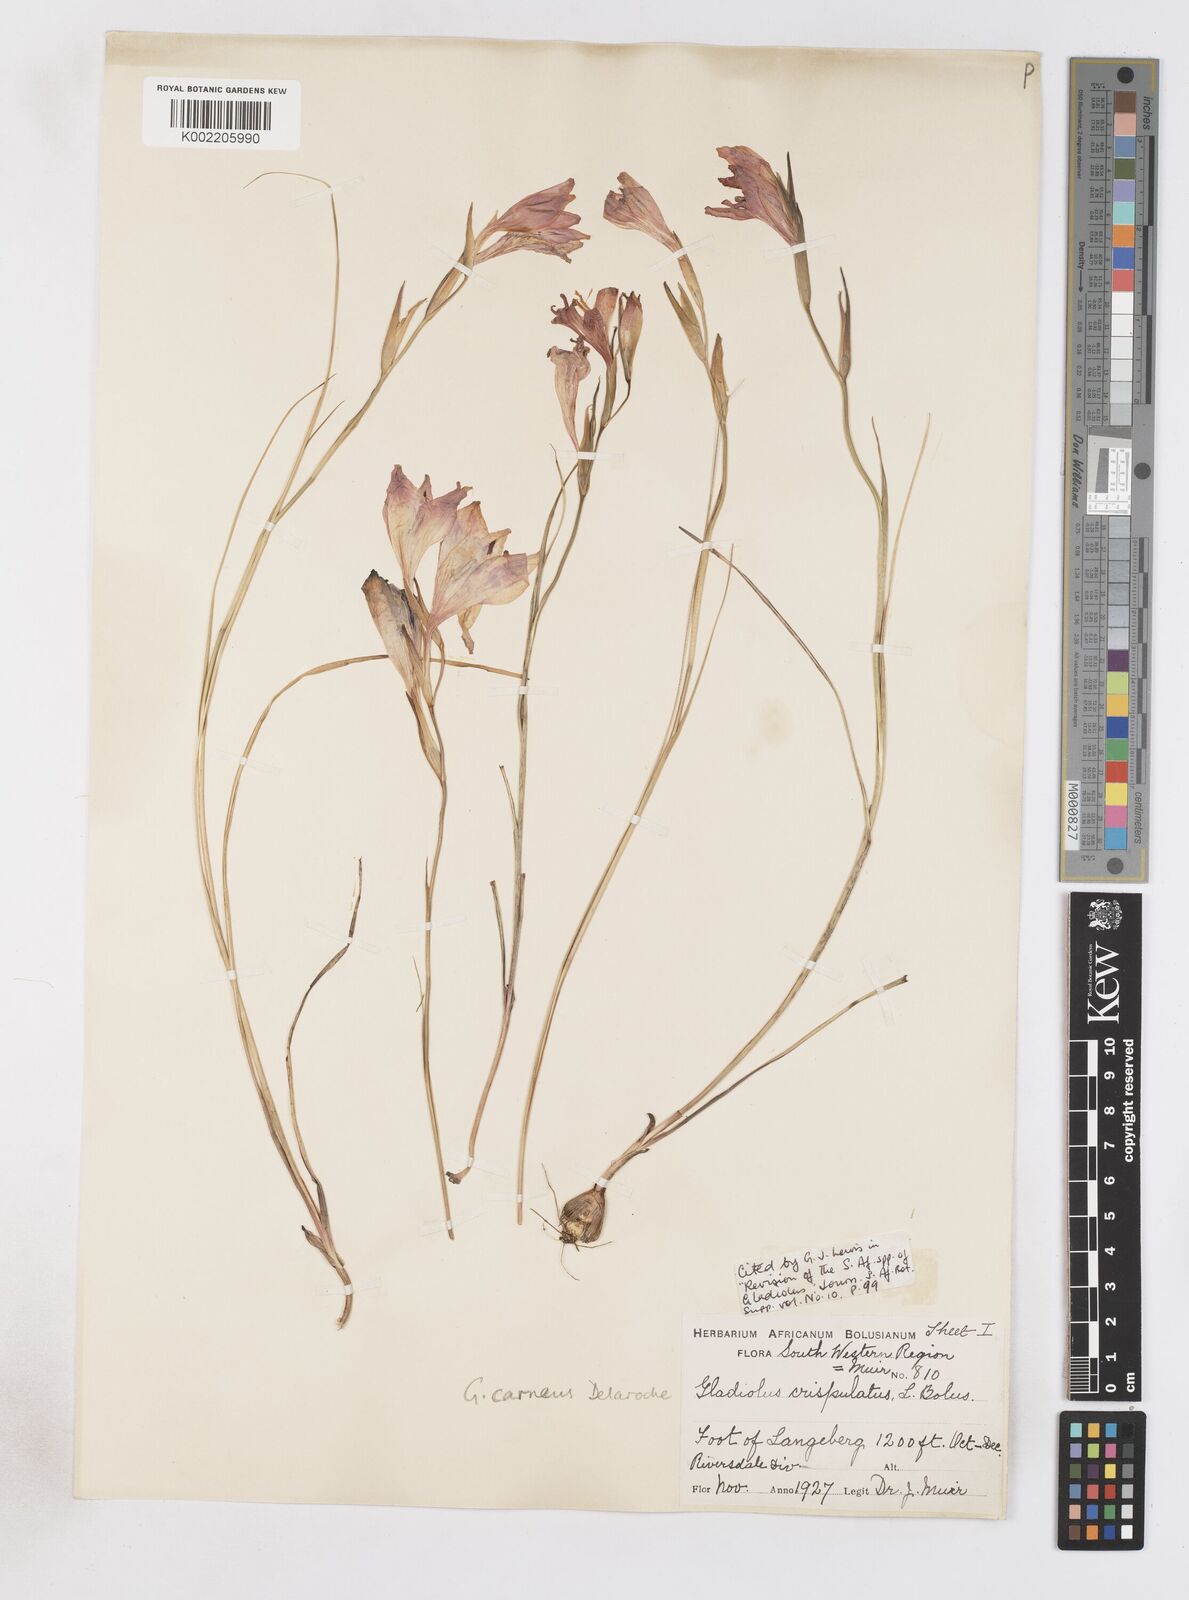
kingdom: Plantae
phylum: Tracheophyta
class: Liliopsida
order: Asparagales
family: Iridaceae
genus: Gladiolus
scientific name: Gladiolus oreocharis
